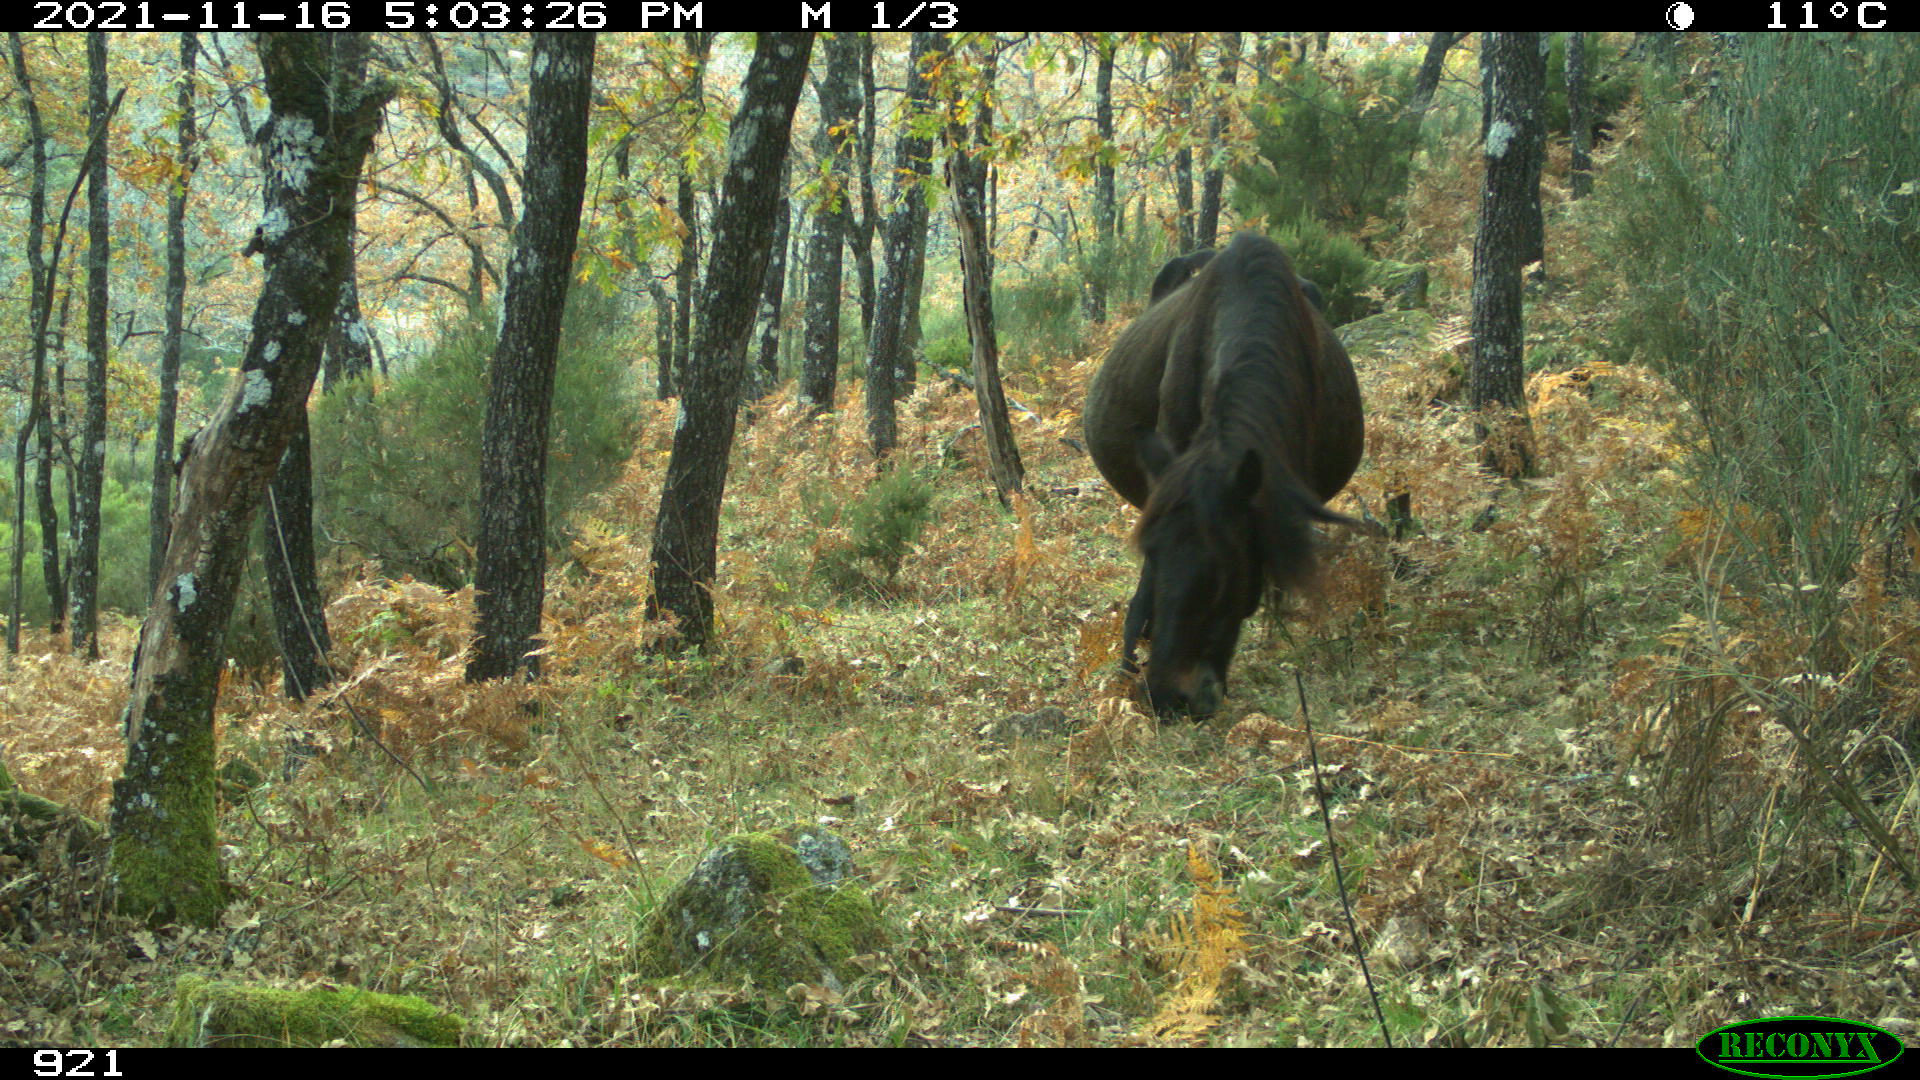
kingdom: Animalia
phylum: Chordata
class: Mammalia
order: Perissodactyla
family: Equidae
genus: Equus
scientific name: Equus caballus
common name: Horse
